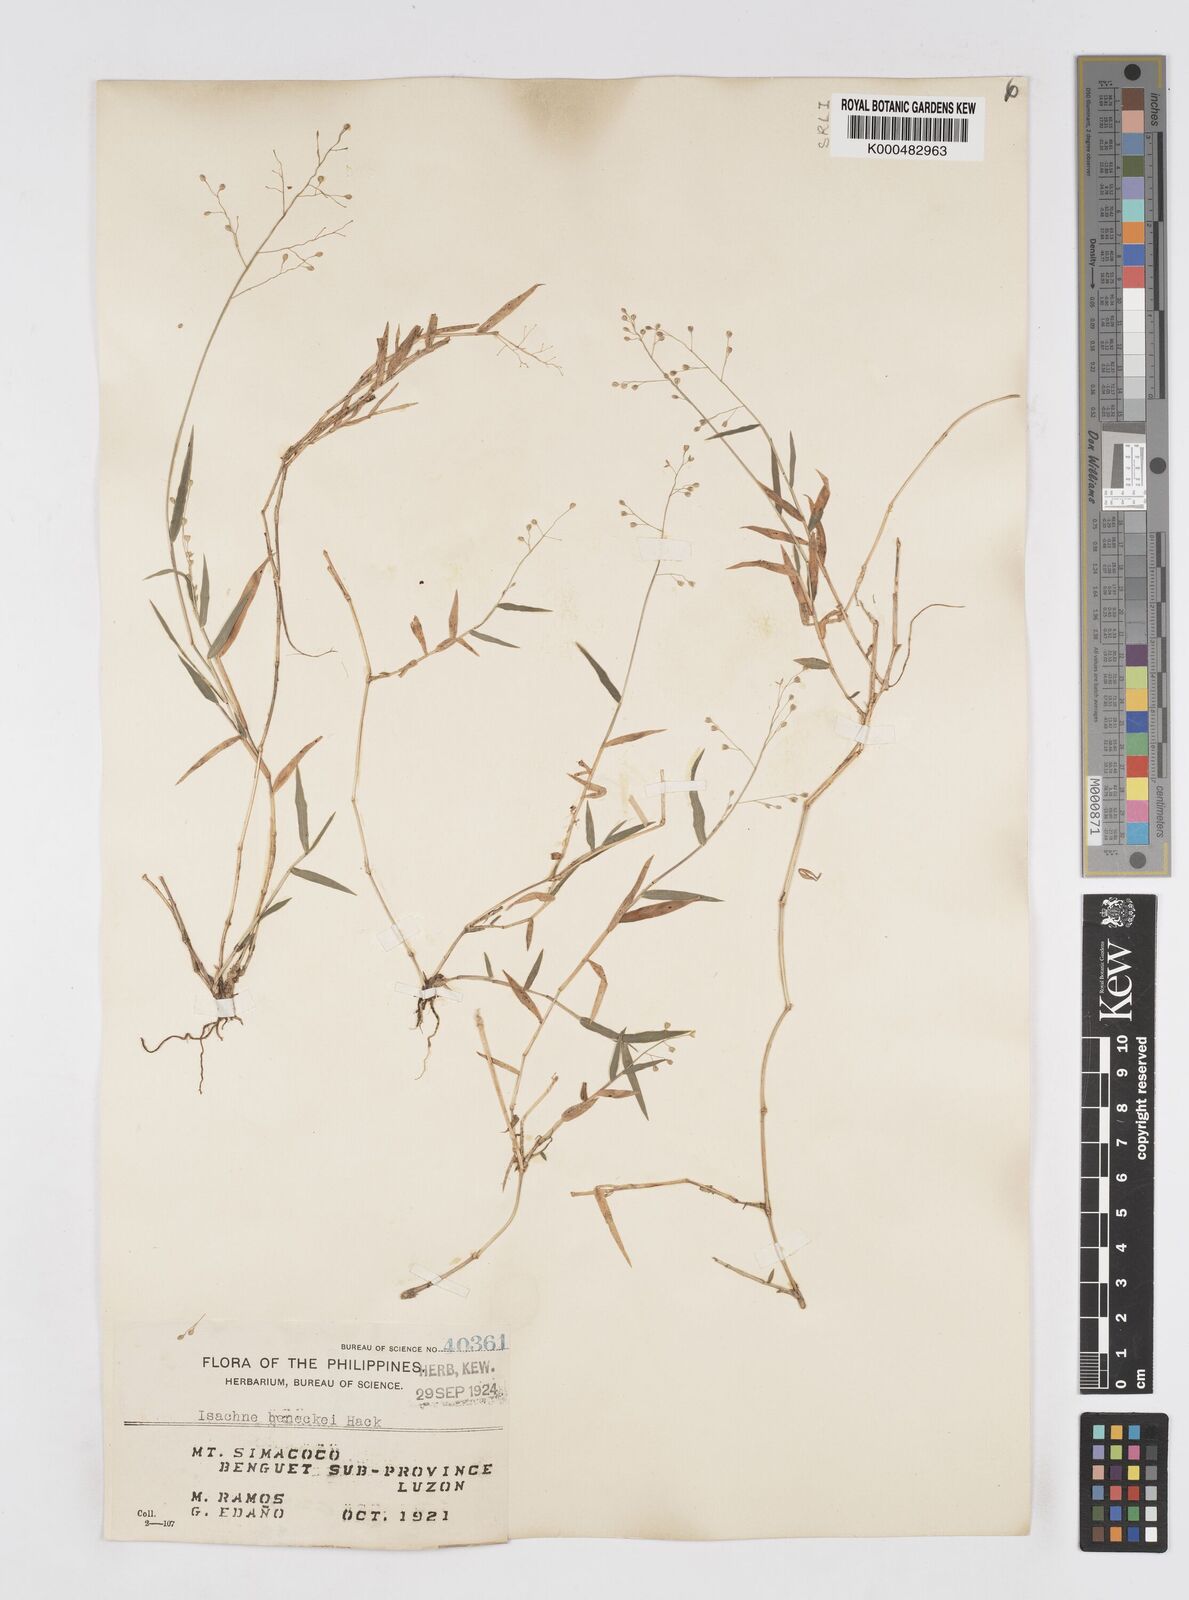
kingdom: Plantae
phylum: Tracheophyta
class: Liliopsida
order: Poales
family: Poaceae
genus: Isachne
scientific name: Isachne clarkei
